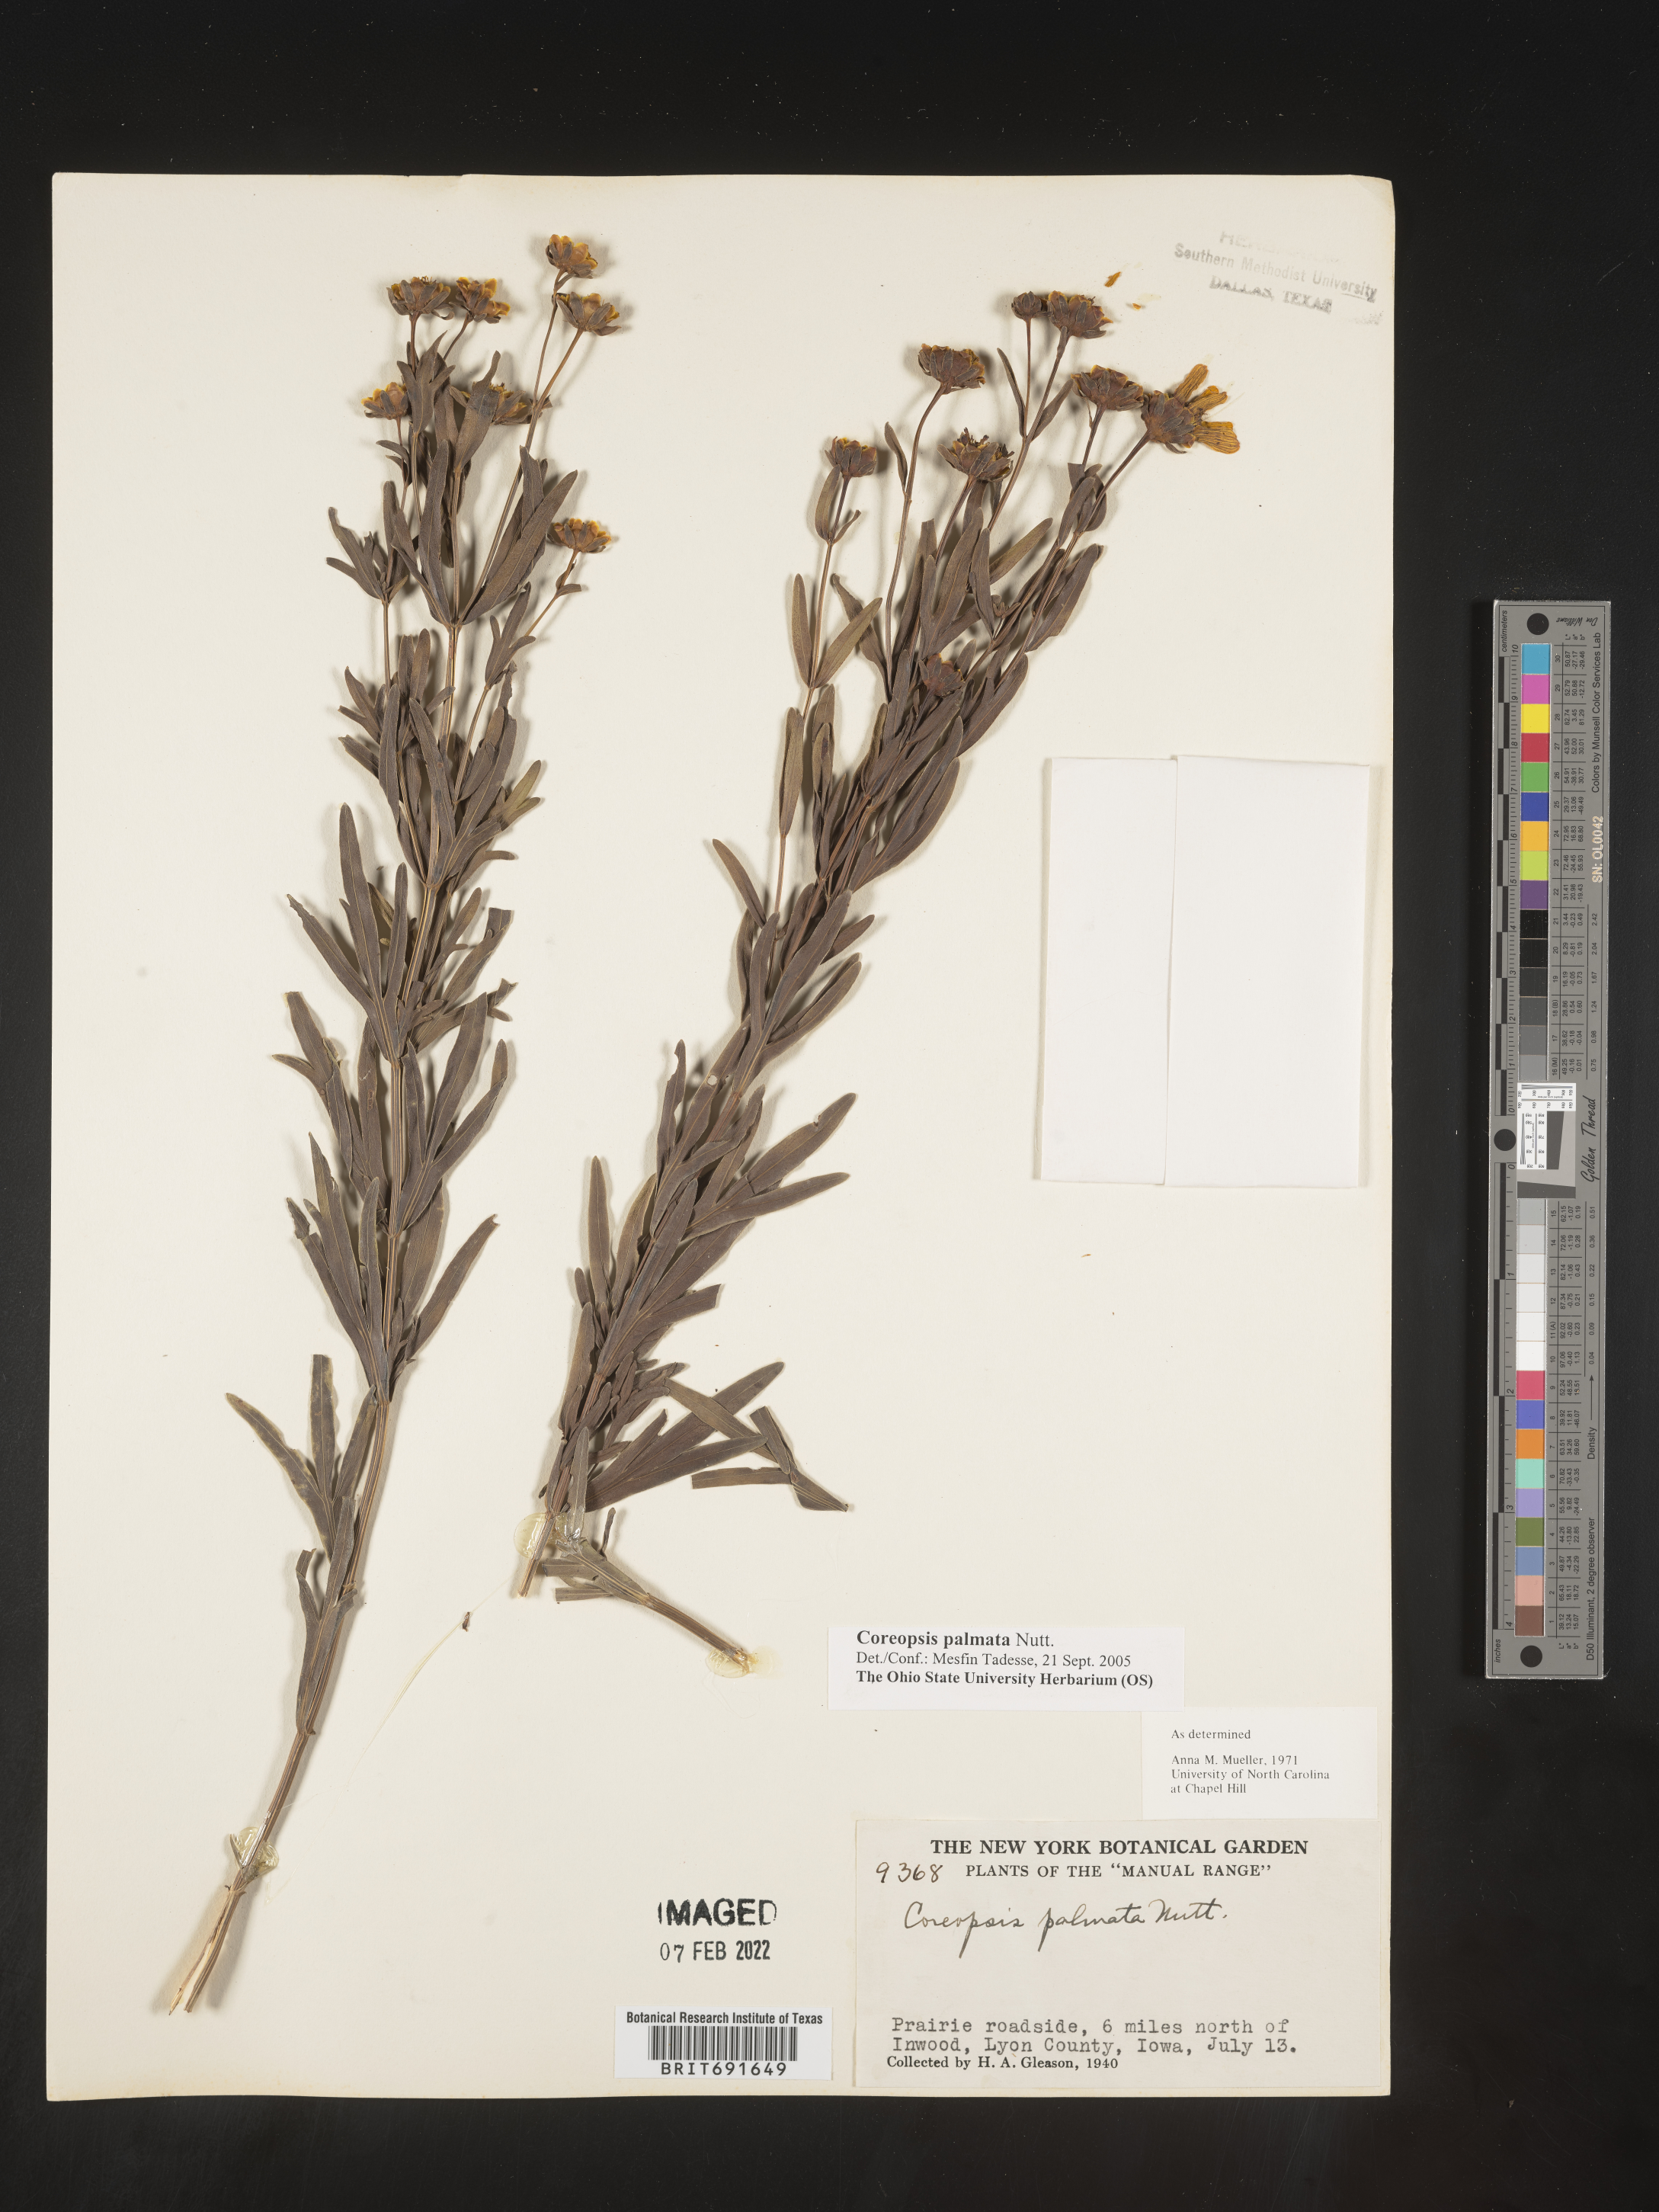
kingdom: Plantae
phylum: Tracheophyta
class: Magnoliopsida
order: Asterales
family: Asteraceae
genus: Coreopsis
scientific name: Coreopsis palmata
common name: Prairie coreopsis
